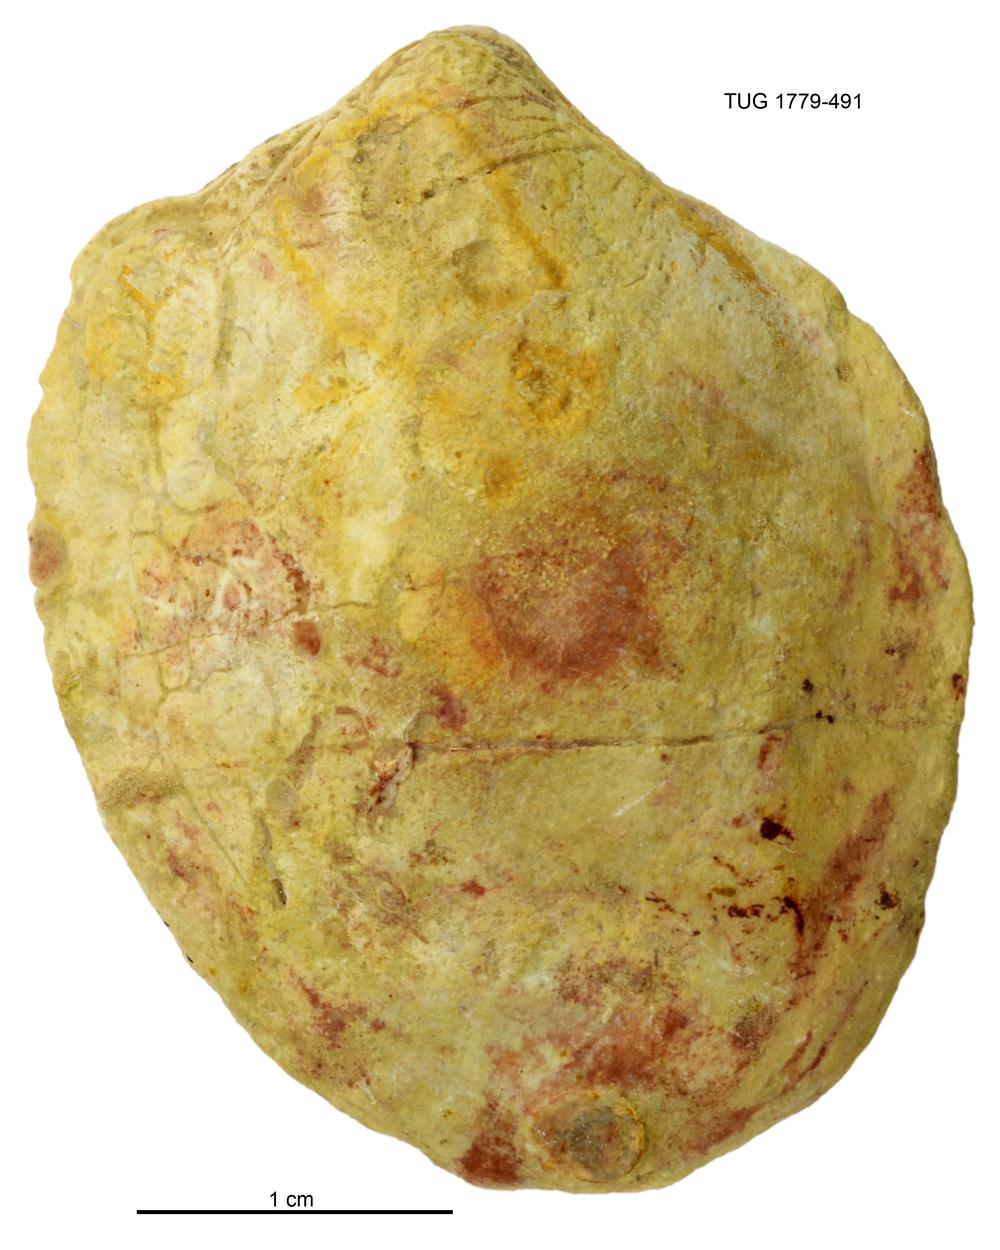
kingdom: Animalia
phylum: Mollusca
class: Bivalvia
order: Cyrtodontida
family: Cyrtodontidae
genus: Cypricardites
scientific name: Cypricardites
